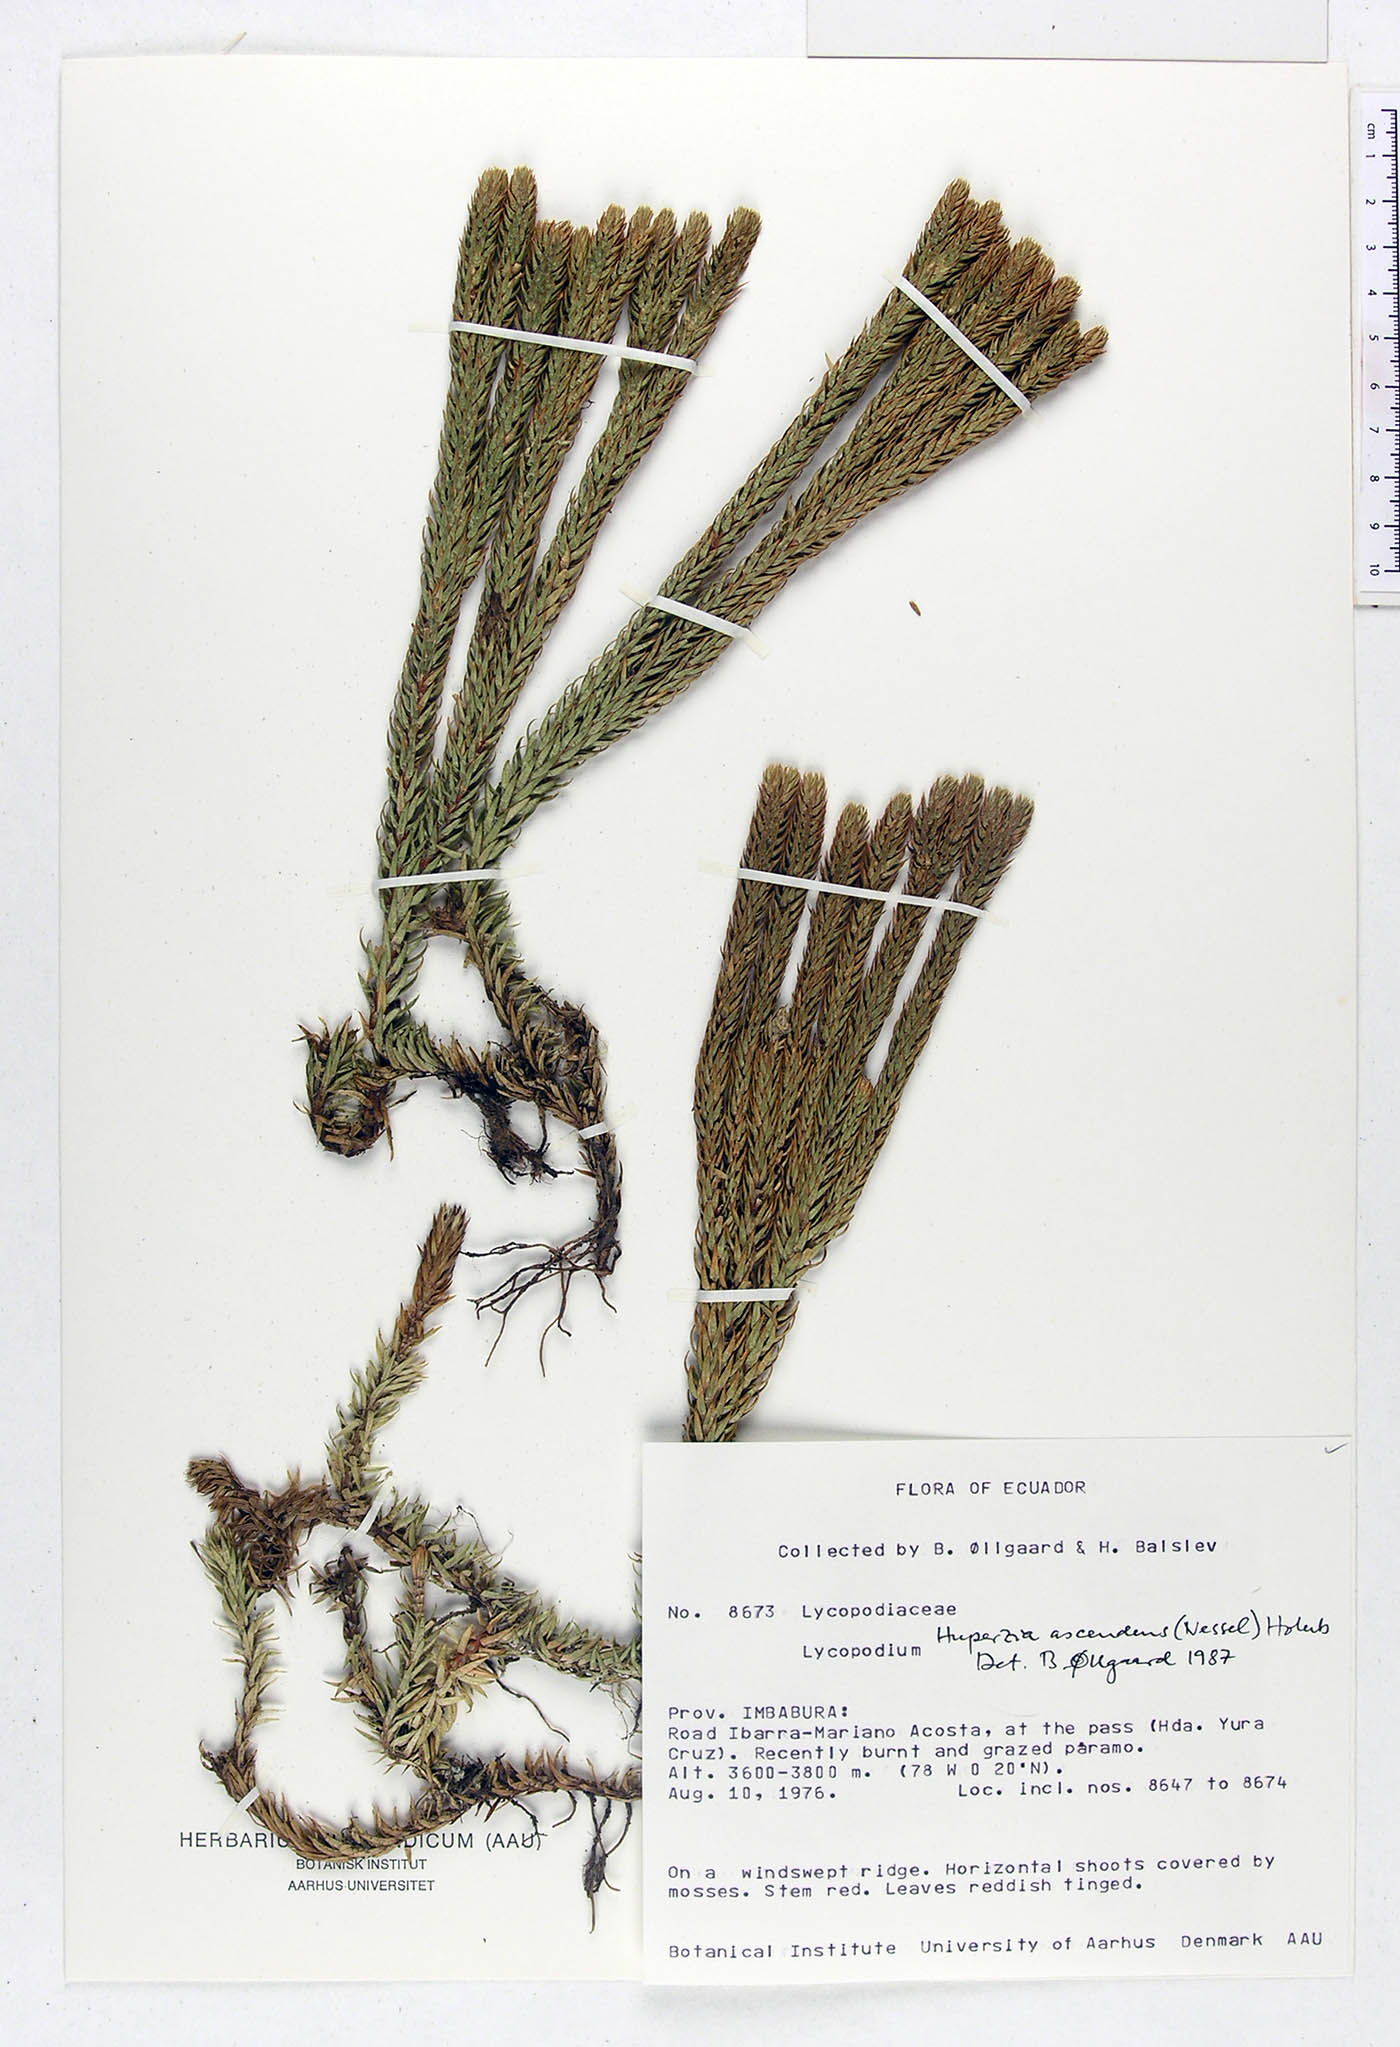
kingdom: Plantae
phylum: Tracheophyta
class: Lycopodiopsida
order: Lycopodiales
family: Lycopodiaceae
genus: Phlegmariurus
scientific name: Phlegmariurus crassus
